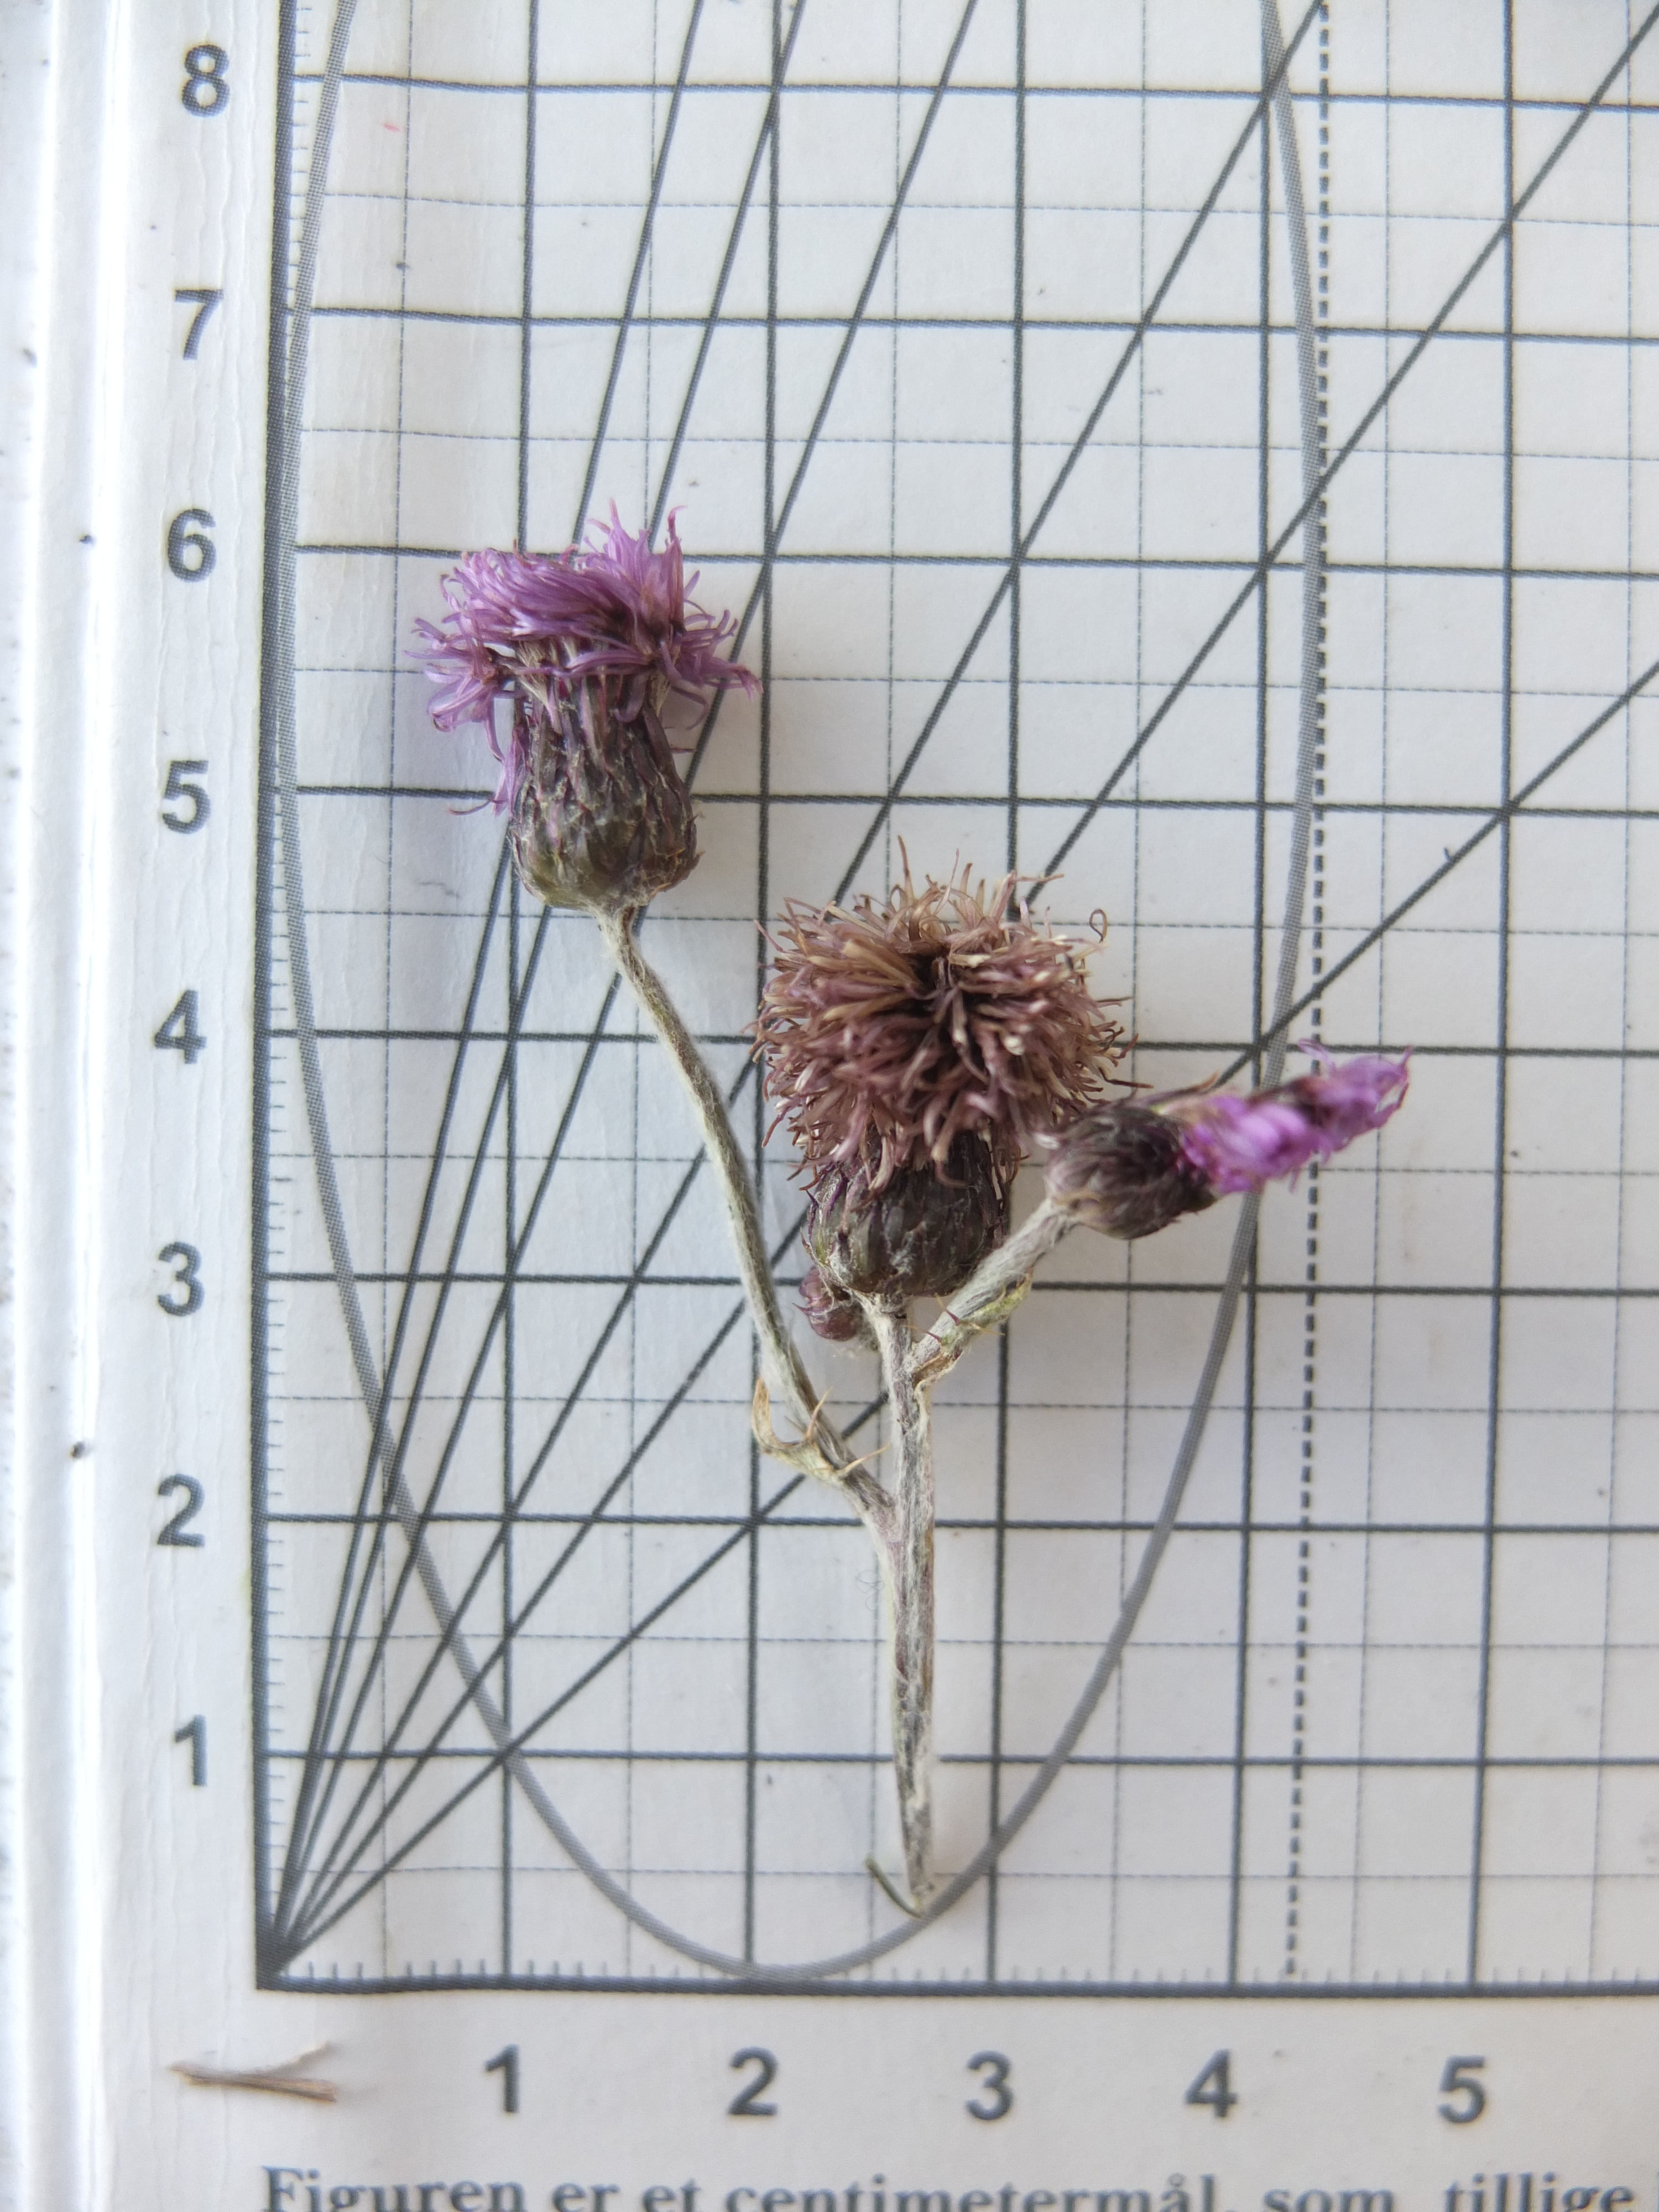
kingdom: Plantae
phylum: Tracheophyta
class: Magnoliopsida
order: Asterales
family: Asteraceae
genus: Cirsium
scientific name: Cirsium arvense
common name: Ager-tidsel
